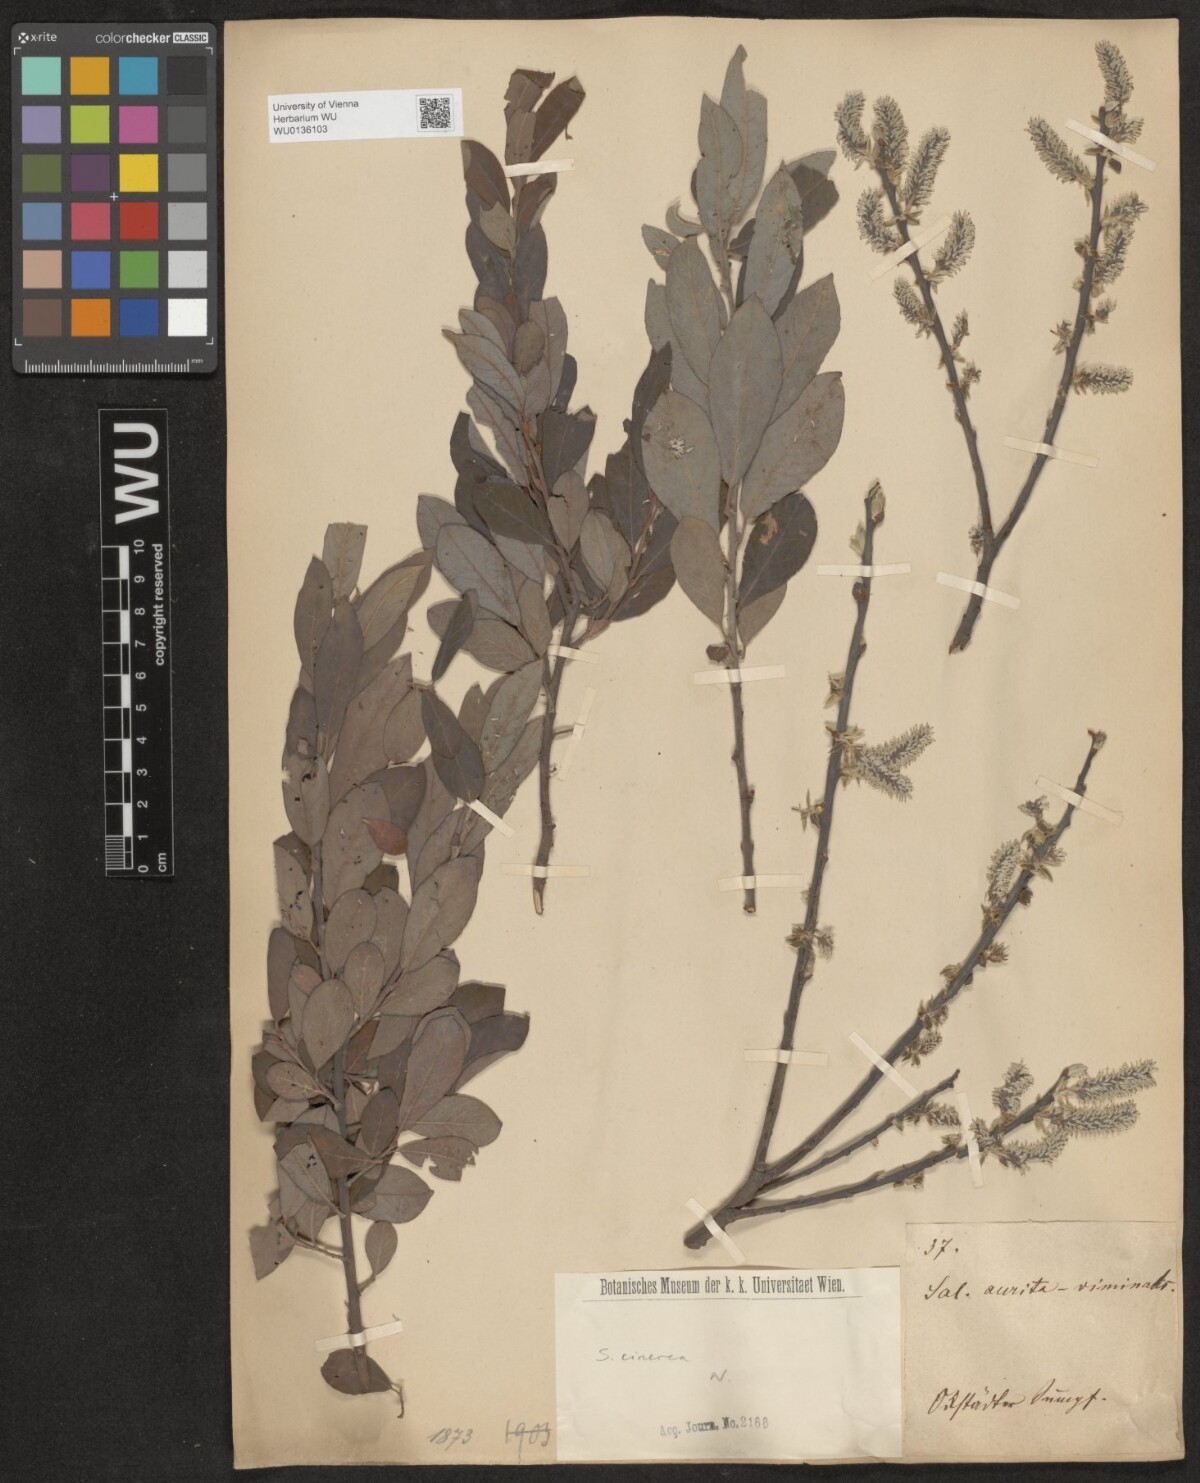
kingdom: Plantae
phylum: Tracheophyta
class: Magnoliopsida
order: Malpighiales
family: Salicaceae
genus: Salix
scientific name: Salix cinerea
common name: Common sallow
